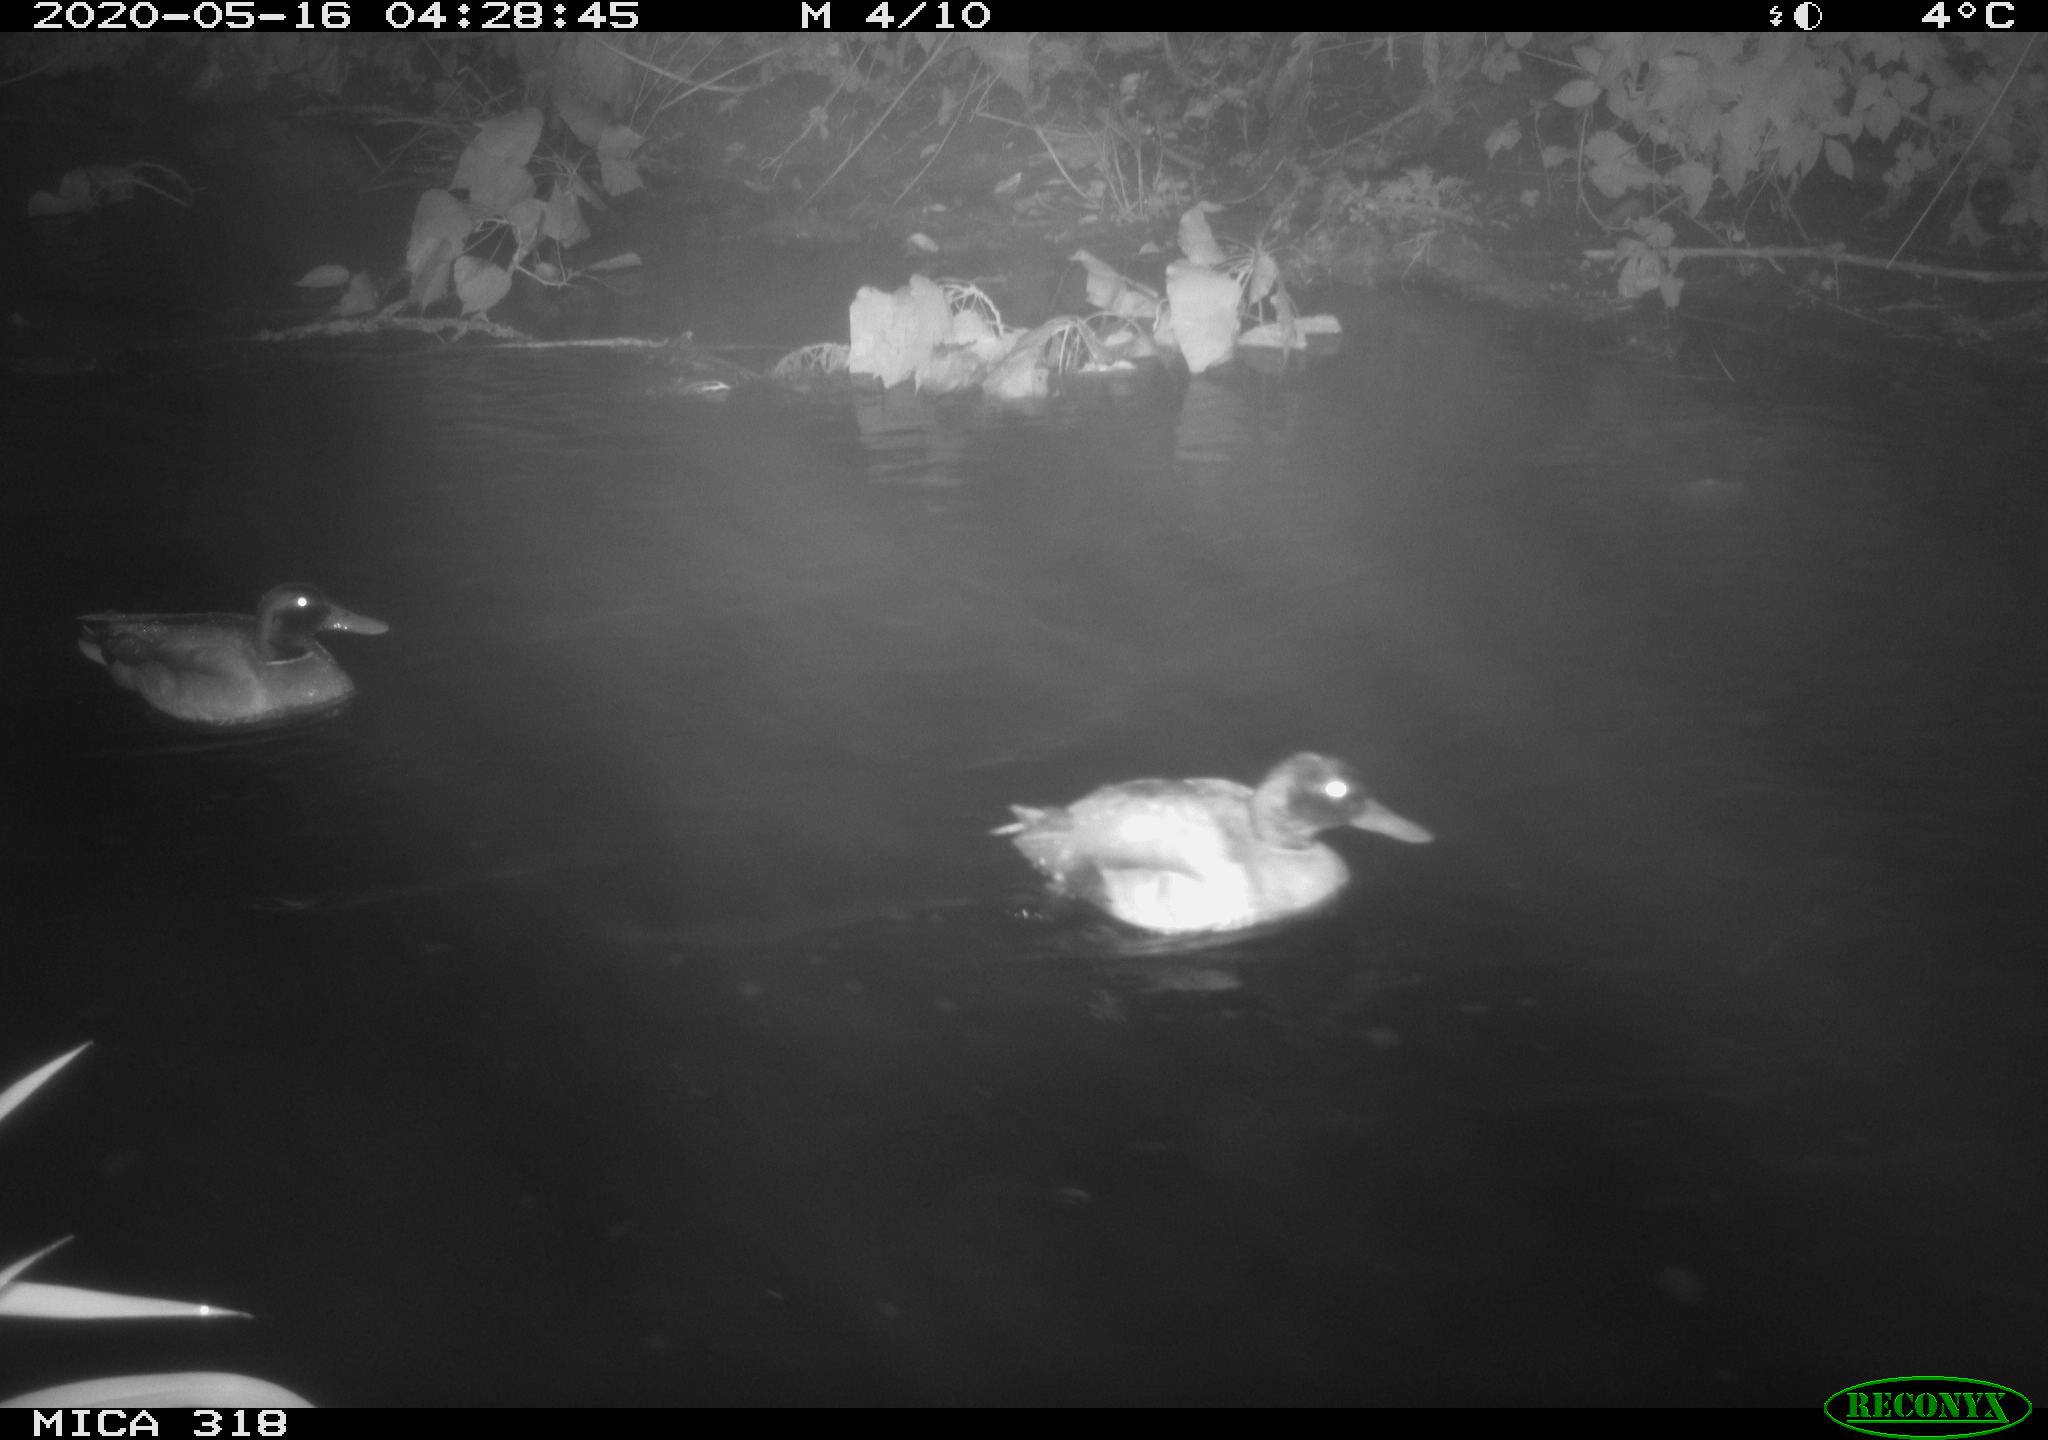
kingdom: Animalia
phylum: Chordata
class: Aves
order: Anseriformes
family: Anatidae
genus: Anas
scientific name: Anas platyrhynchos
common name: Mallard
